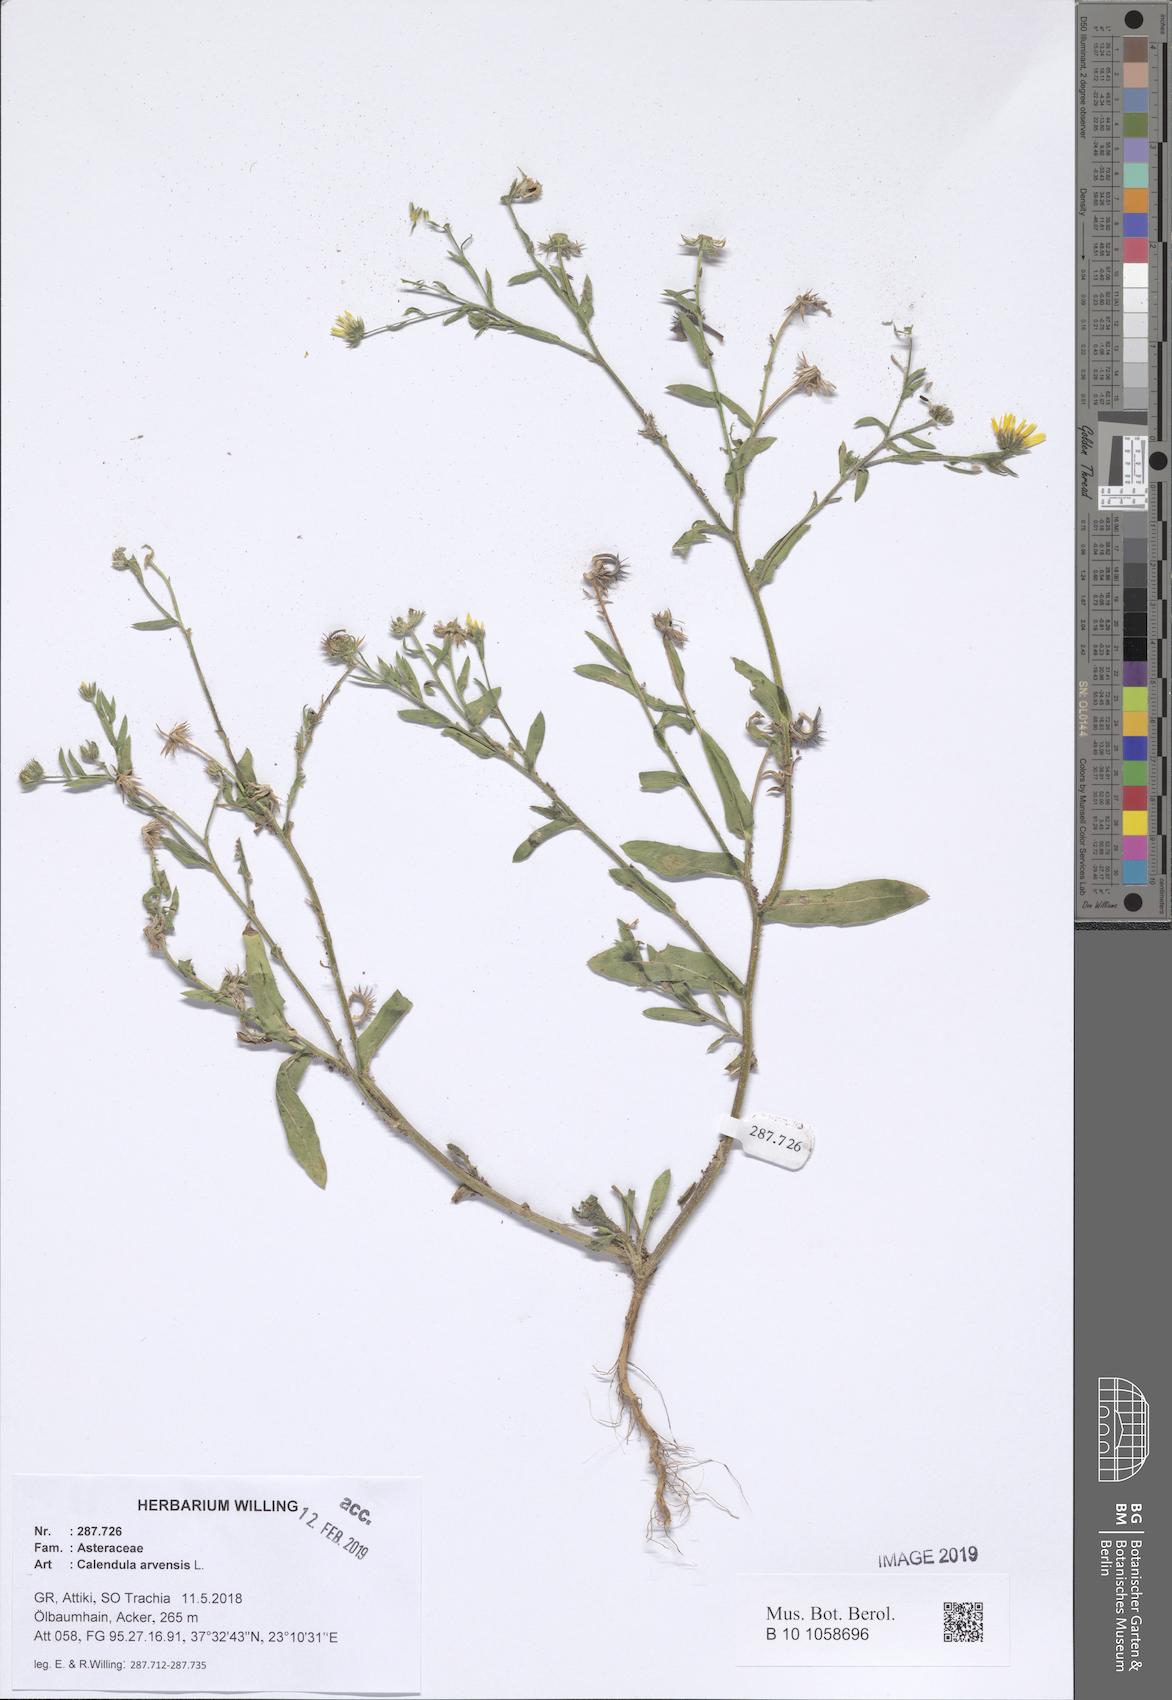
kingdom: Plantae
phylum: Tracheophyta
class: Magnoliopsida
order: Asterales
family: Asteraceae
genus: Calendula
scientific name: Calendula arvensis
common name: Field marigold
